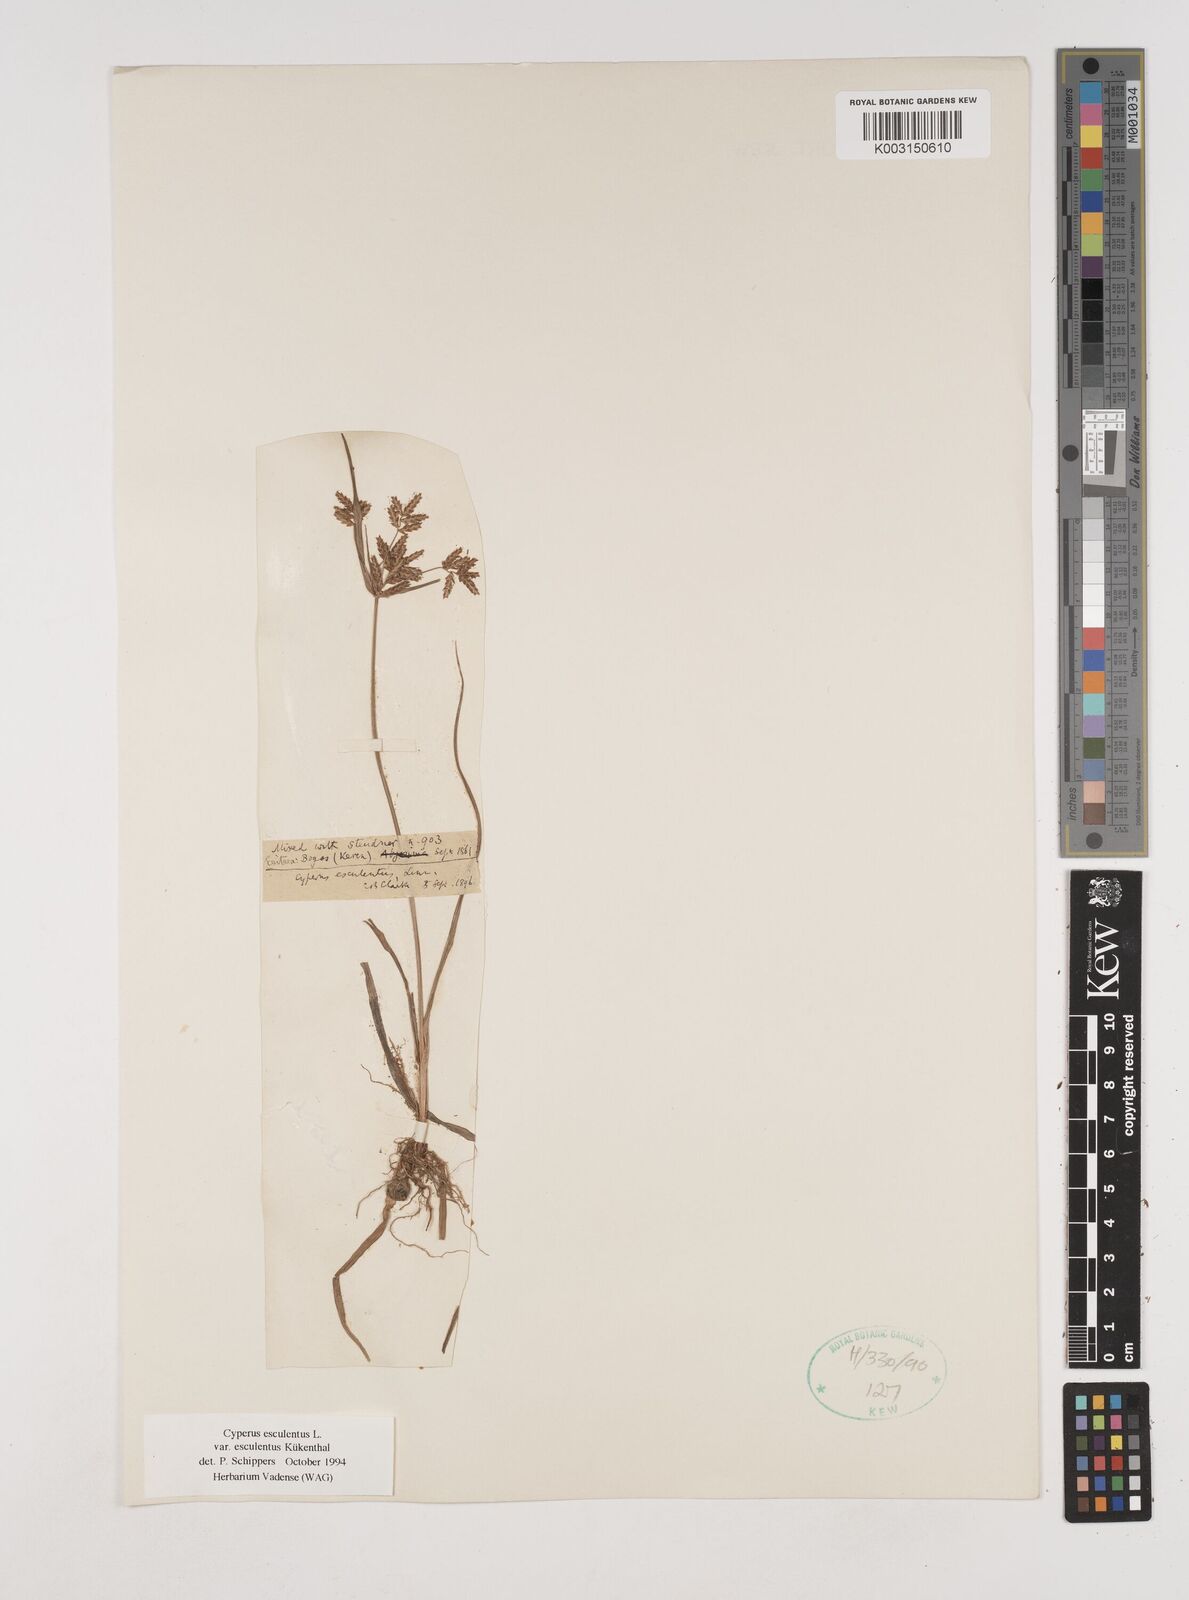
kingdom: Plantae
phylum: Tracheophyta
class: Liliopsida
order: Poales
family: Cyperaceae
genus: Cyperus
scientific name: Cyperus esculentus
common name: Yellow nutsedge
